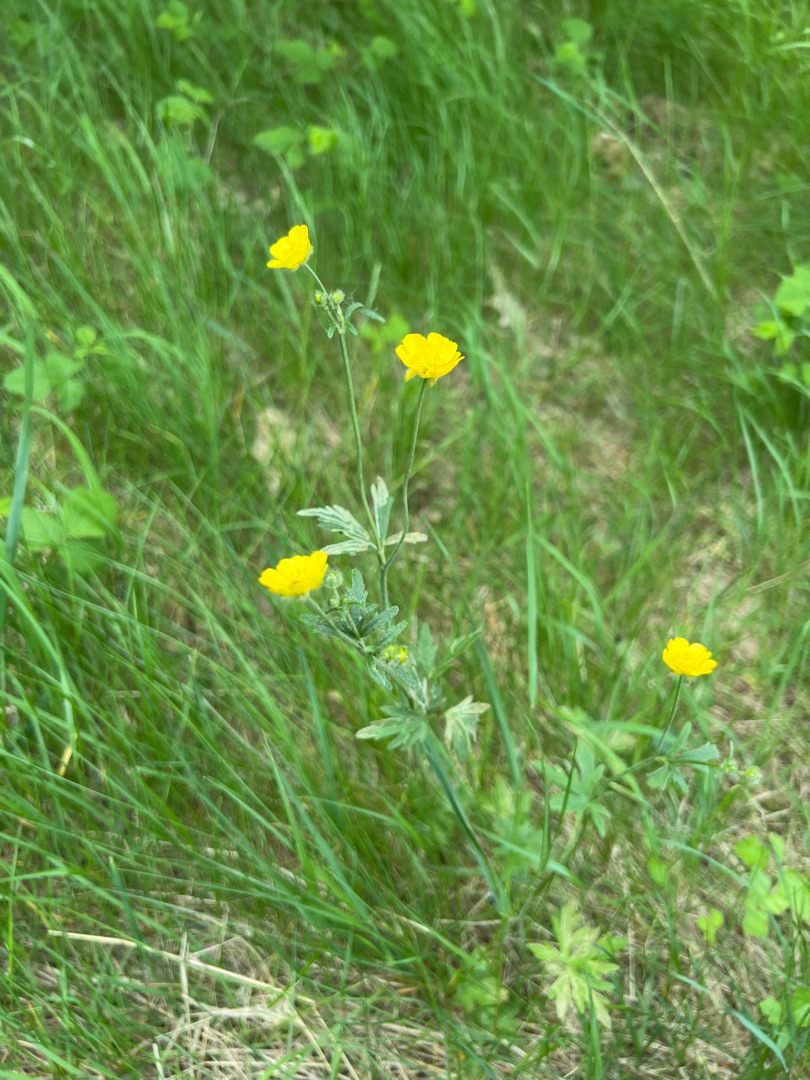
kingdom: Plantae
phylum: Tracheophyta
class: Magnoliopsida
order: Ranunculales
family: Ranunculaceae
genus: Ranunculus
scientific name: Ranunculus acris
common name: Bidende ranunkel
